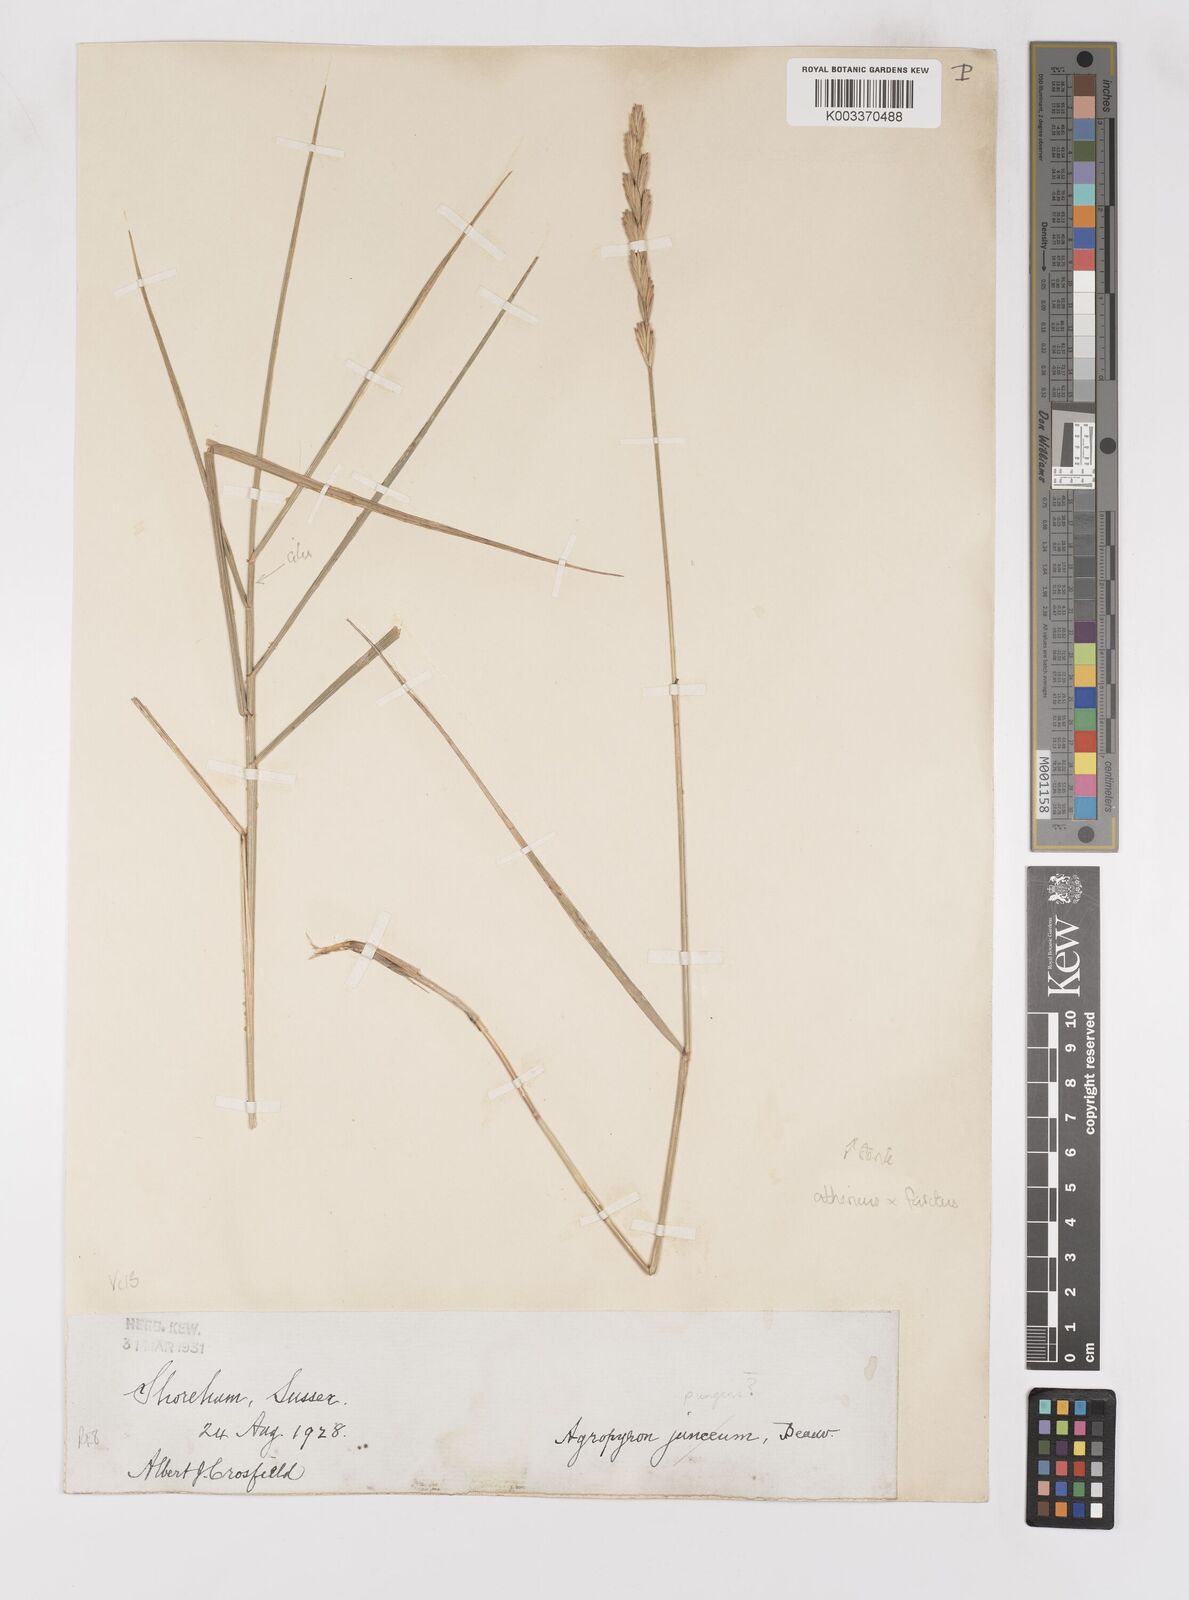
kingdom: Plantae
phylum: Tracheophyta
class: Liliopsida
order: Poales
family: Poaceae
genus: Thinoelymus
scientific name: Thinoelymus obtusiusculus
